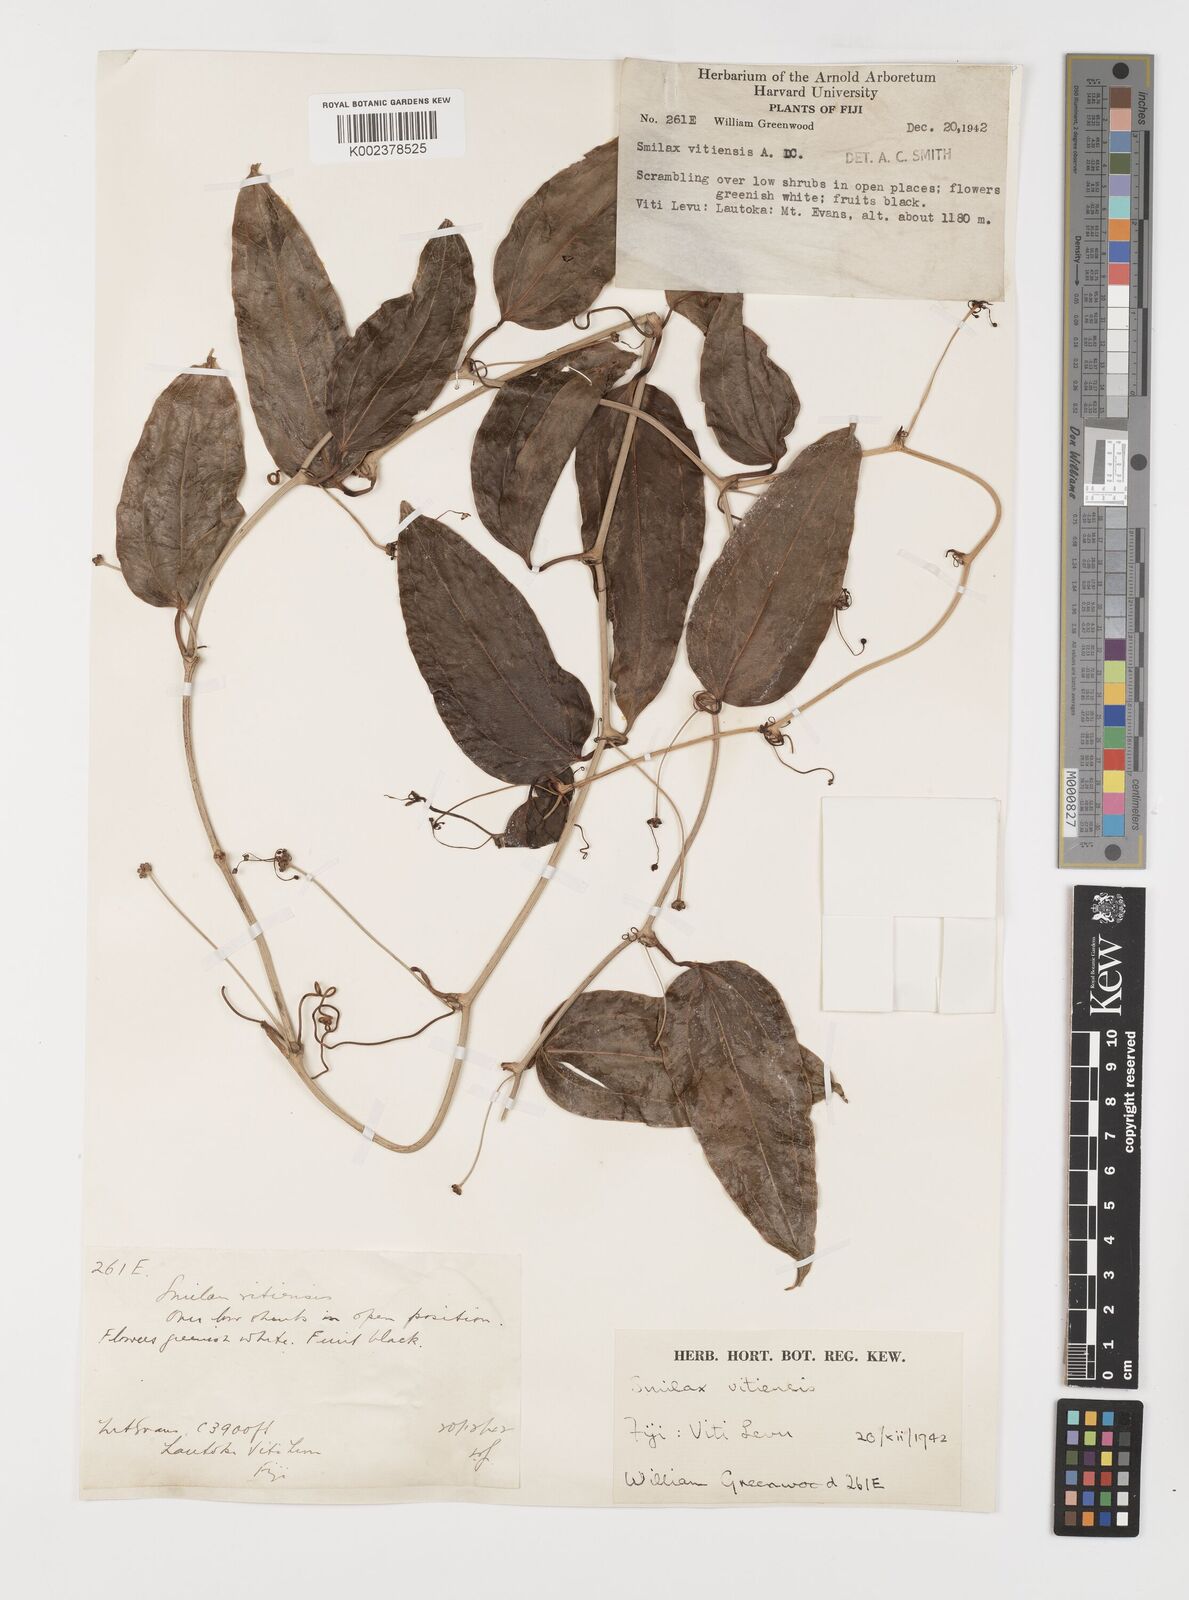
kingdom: Plantae
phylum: Tracheophyta
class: Liliopsida
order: Liliales
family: Smilacaceae
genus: Smilax
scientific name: Smilax vitiensis
